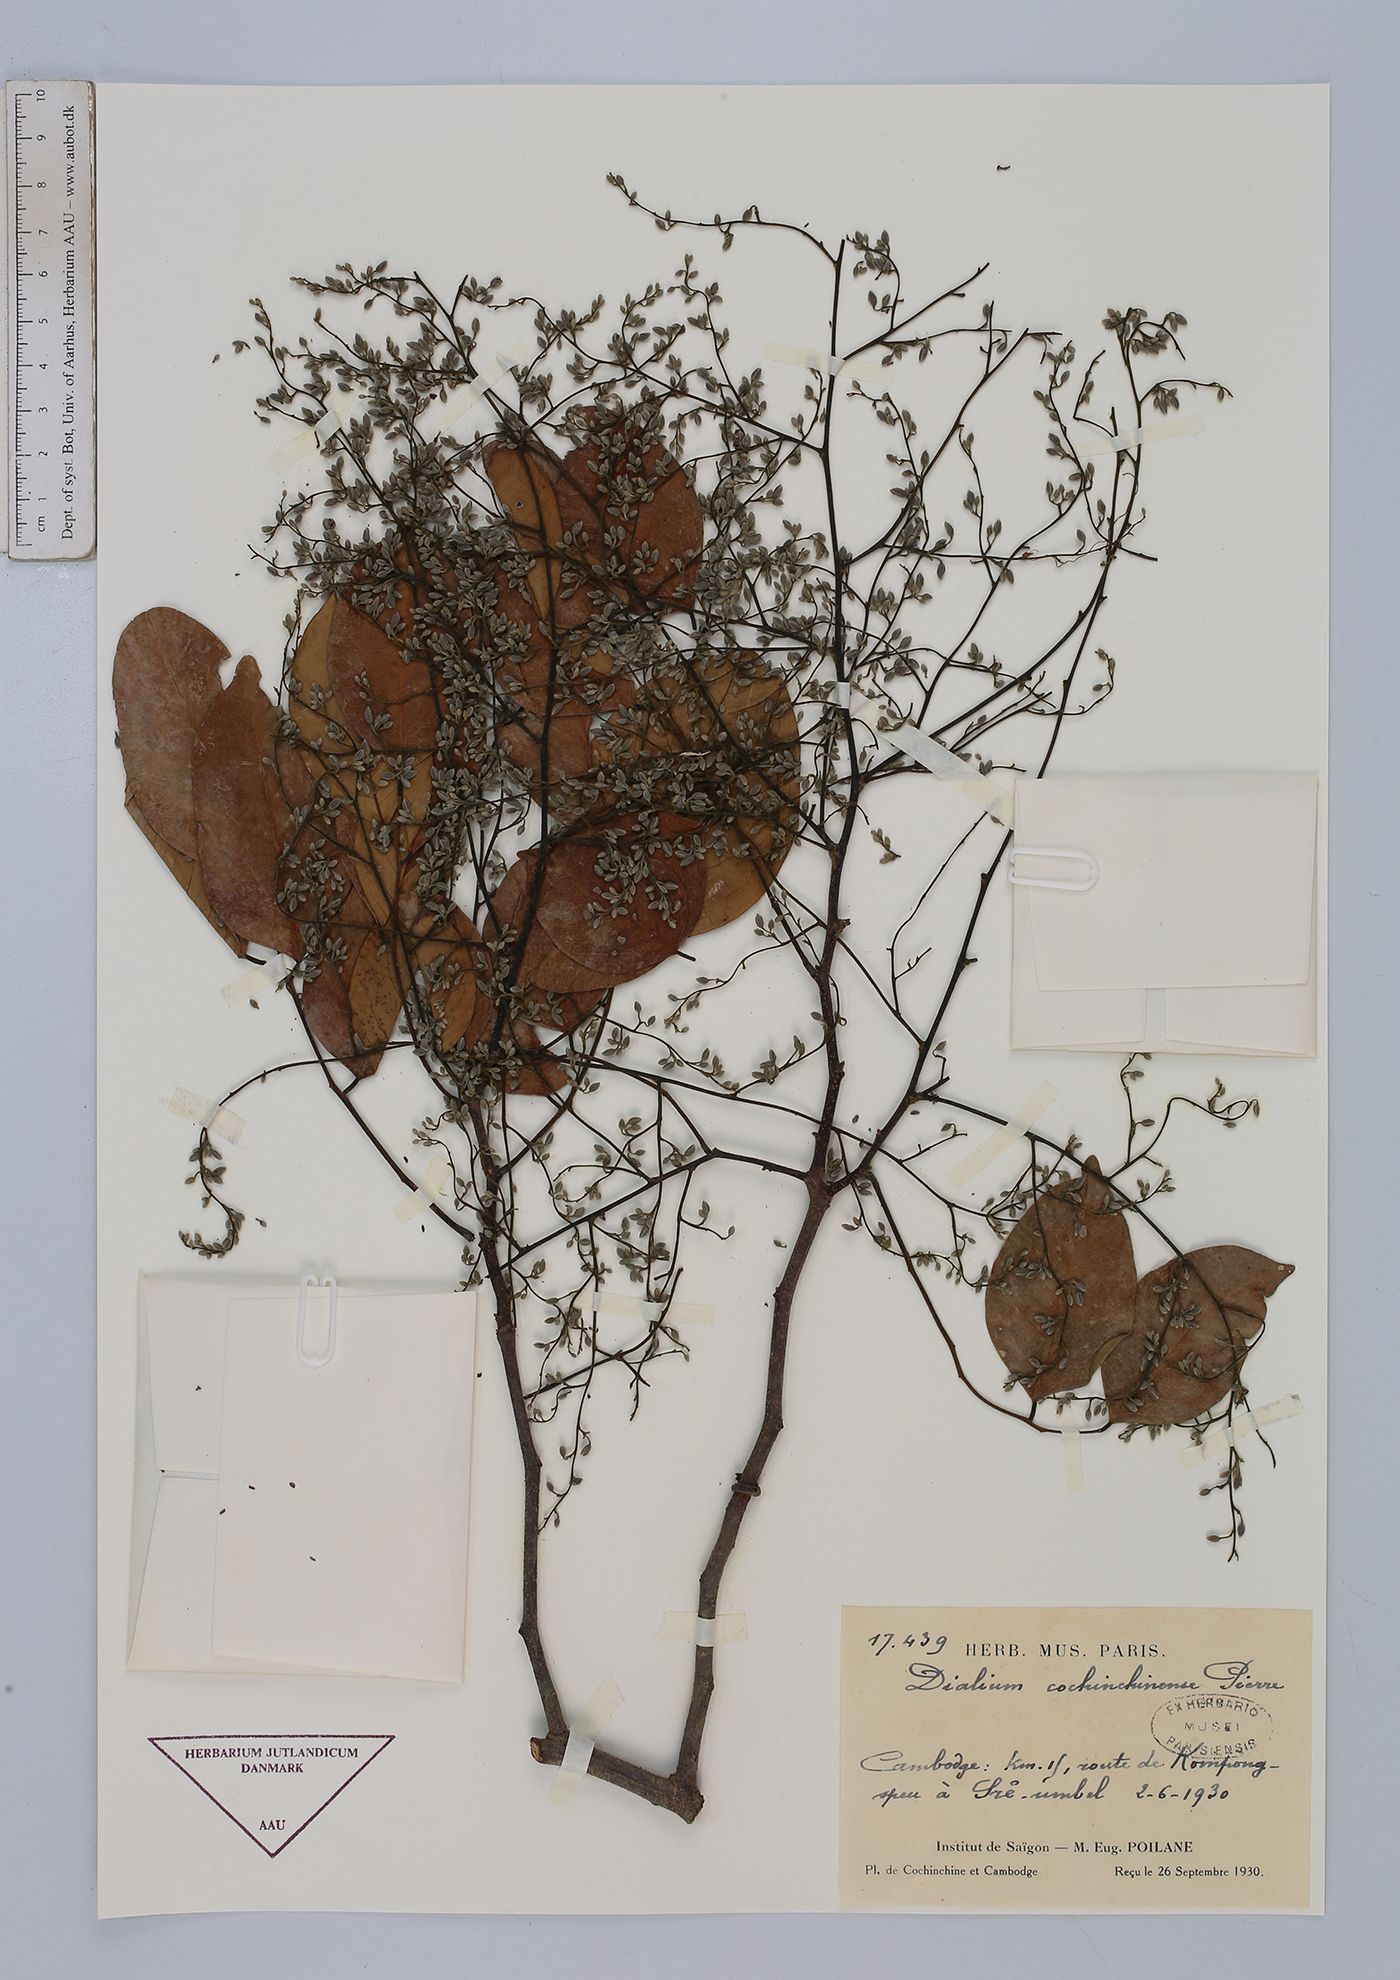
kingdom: Plantae
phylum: Tracheophyta
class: Magnoliopsida
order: Fabales
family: Fabaceae
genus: Dialium
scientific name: Dialium cochinchinense
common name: Velvet tamarind
